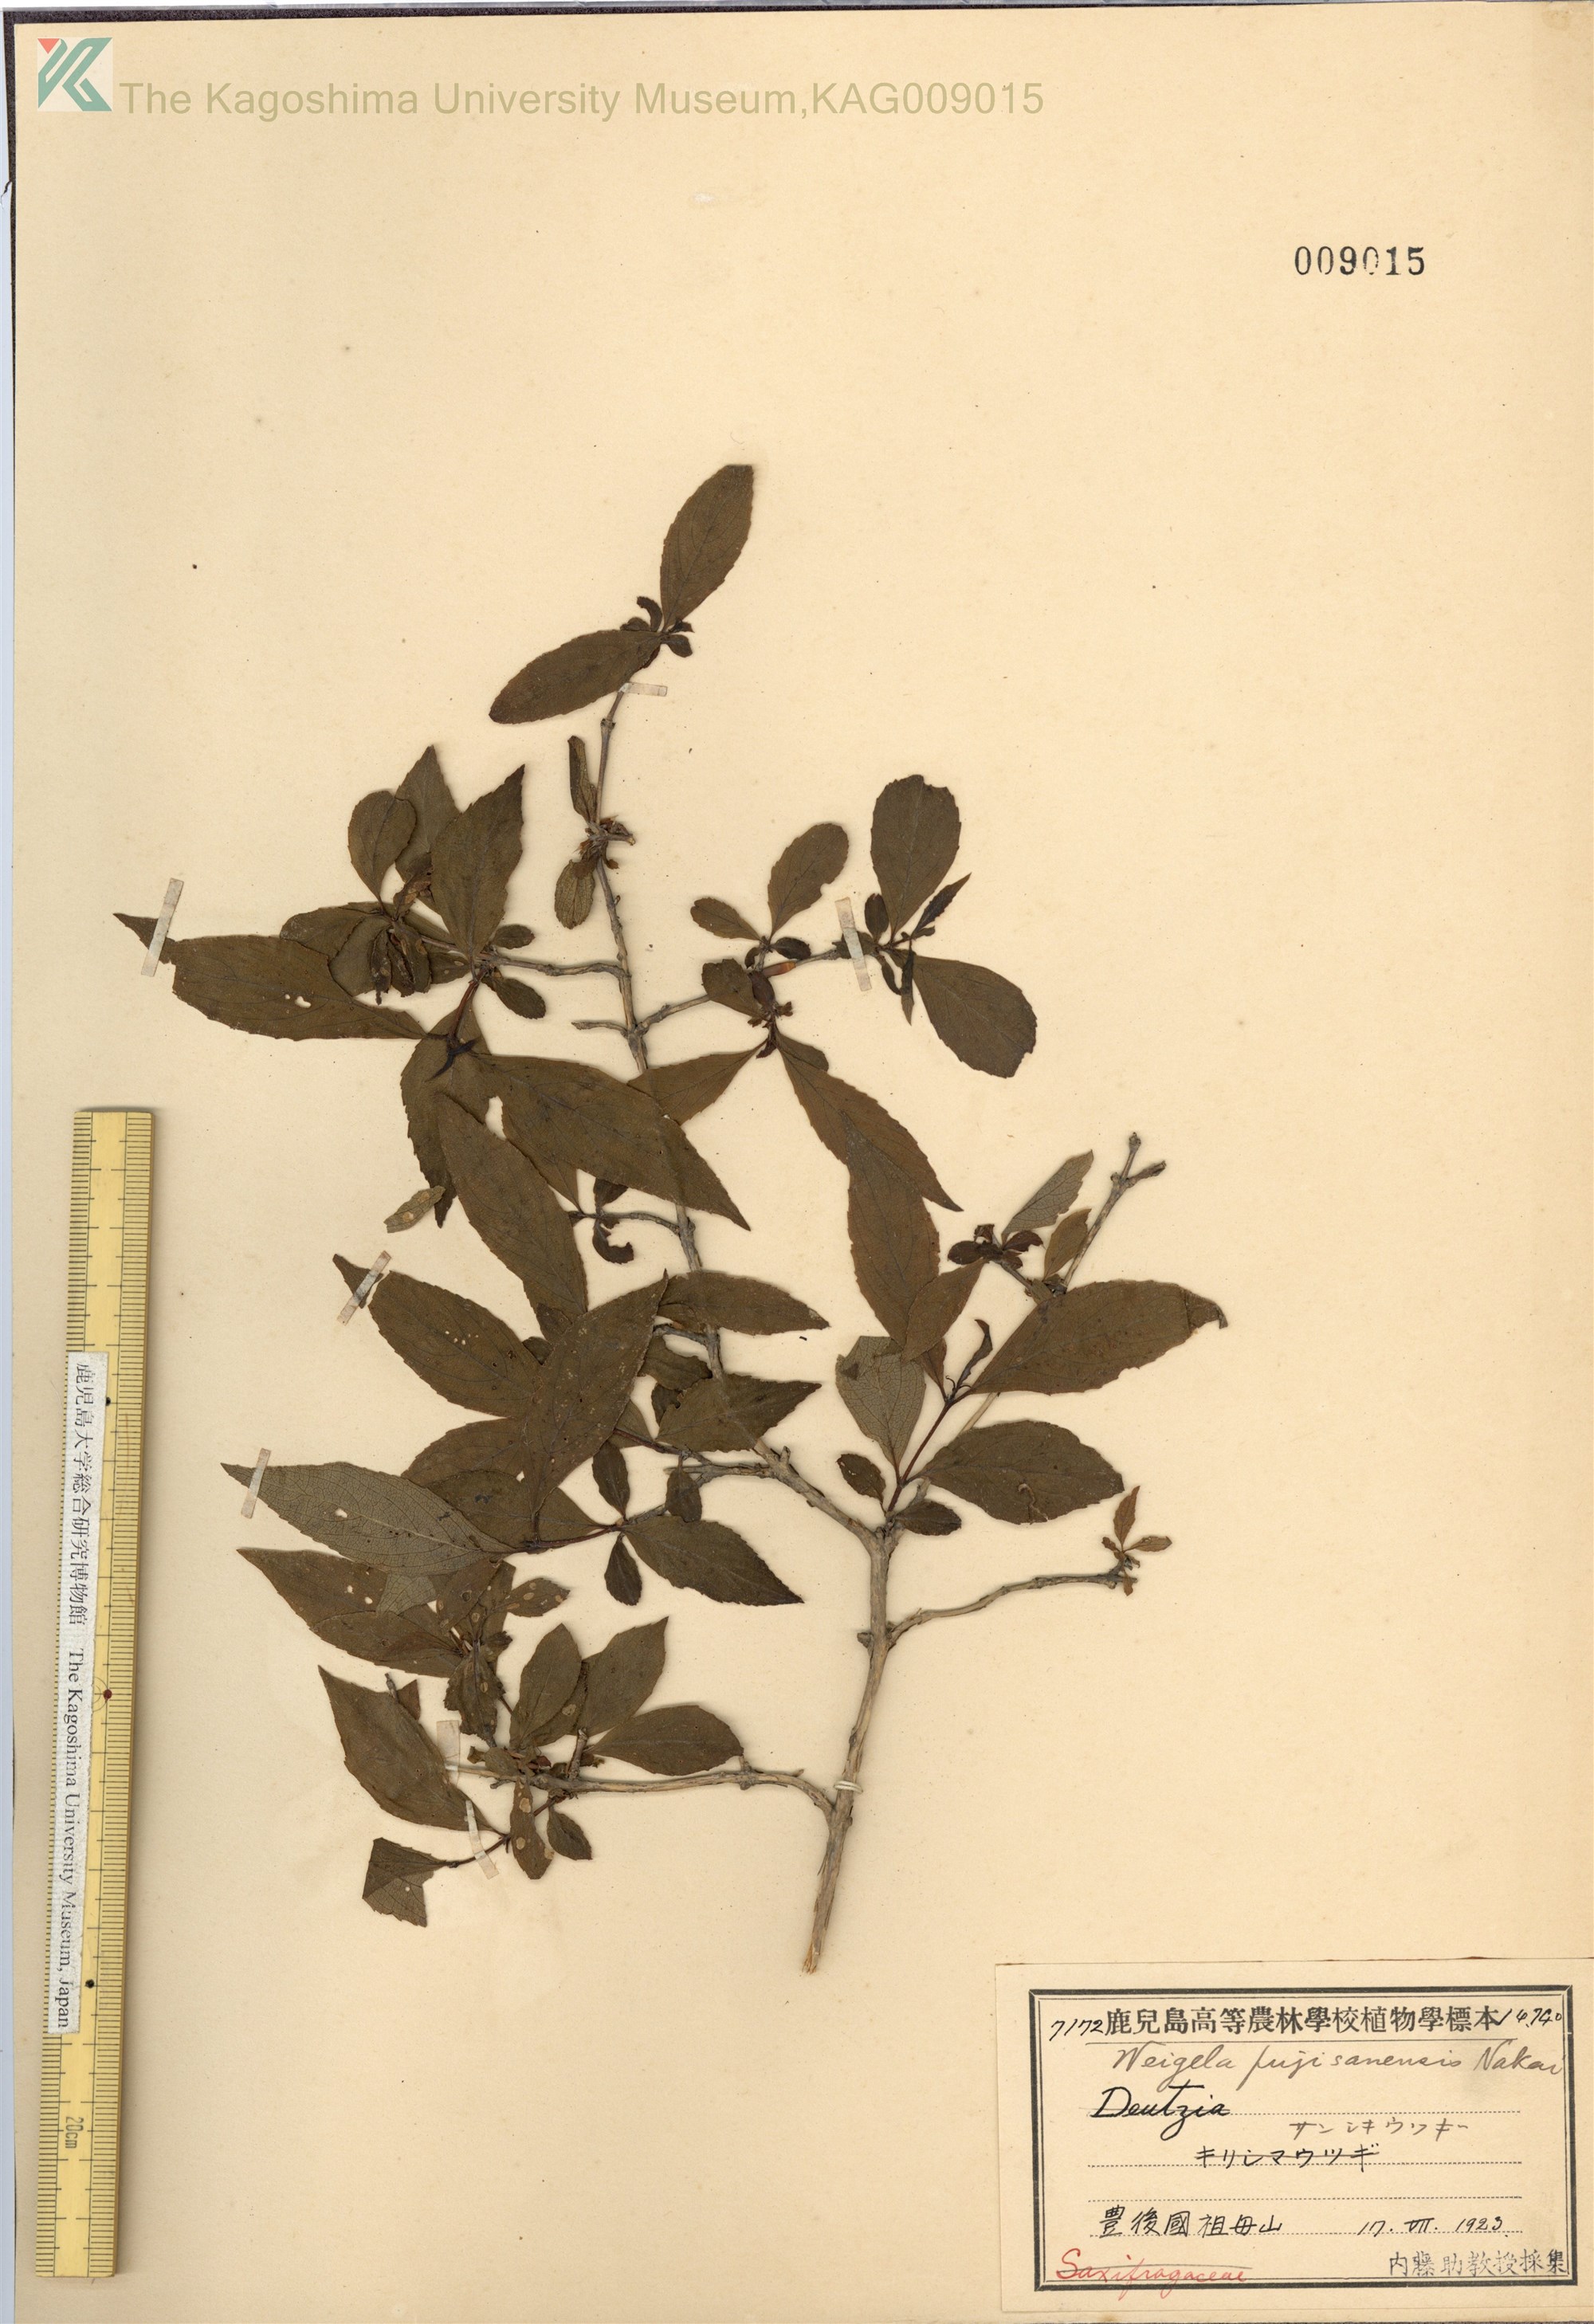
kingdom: Plantae
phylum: Tracheophyta
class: Magnoliopsida
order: Dipsacales
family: Caprifoliaceae
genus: Weigela
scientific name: Weigela decora
